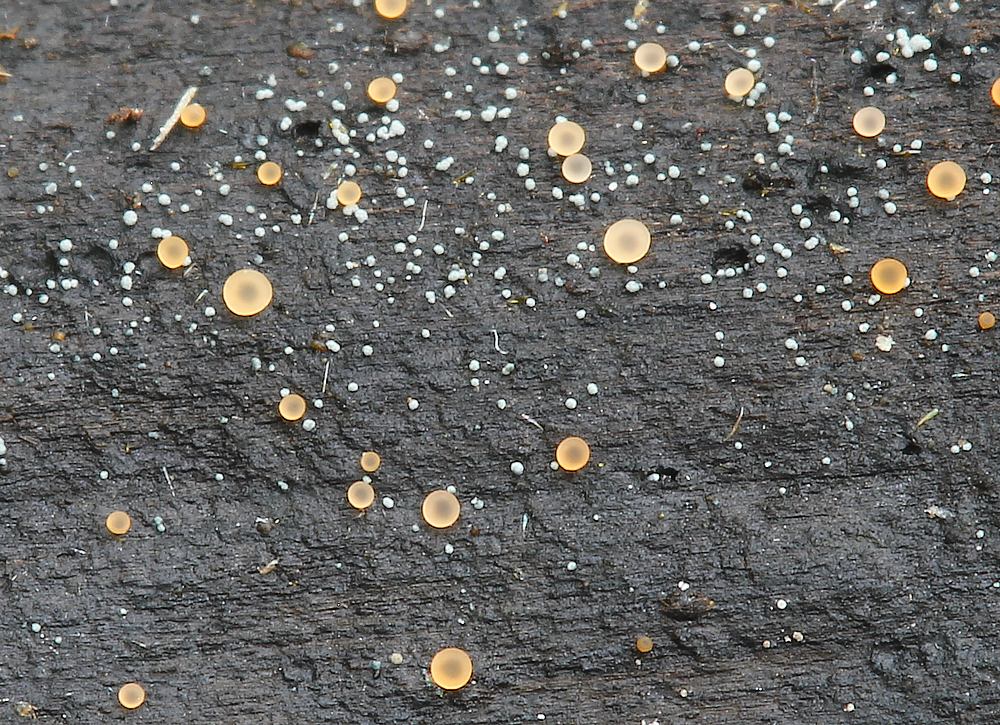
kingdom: Fungi
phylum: Ascomycota
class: Orbiliomycetes
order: Orbiliales
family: Orbiliaceae
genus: Orbilia
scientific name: Orbilia
